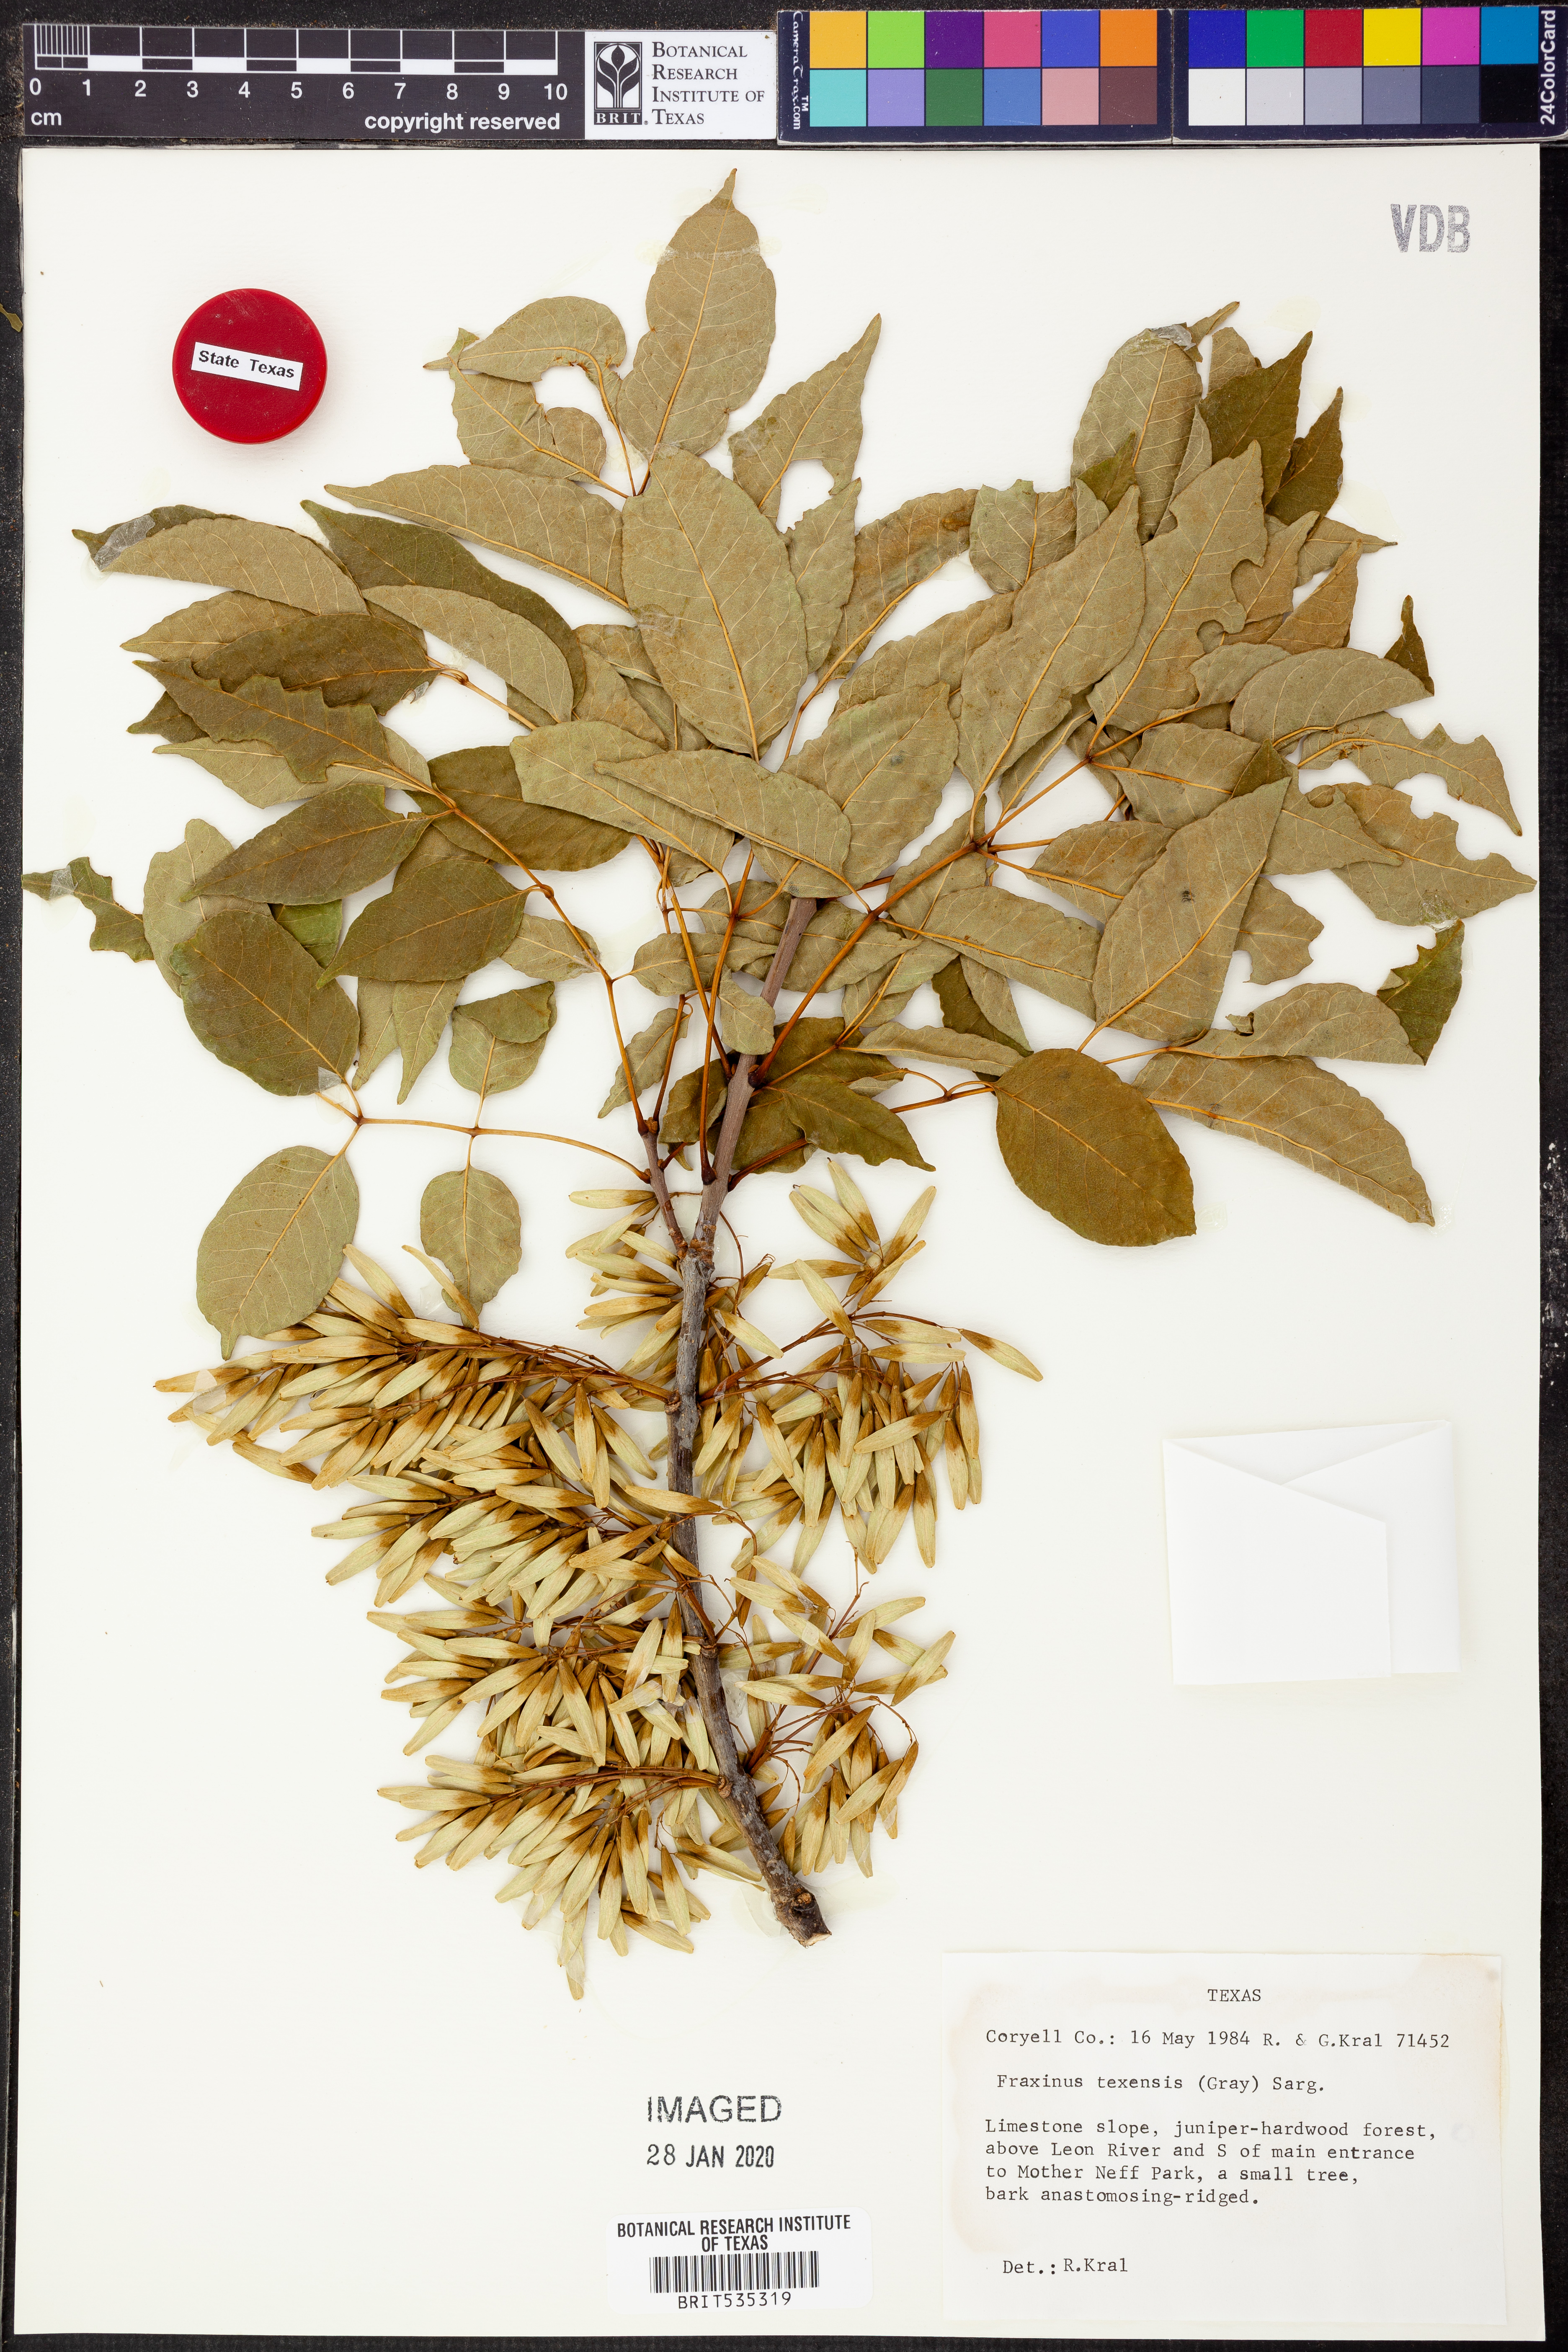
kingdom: Plantae
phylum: Tracheophyta
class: Magnoliopsida
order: Lamiales
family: Oleaceae
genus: Fraxinus
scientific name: Fraxinus albicans
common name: Texas ash
